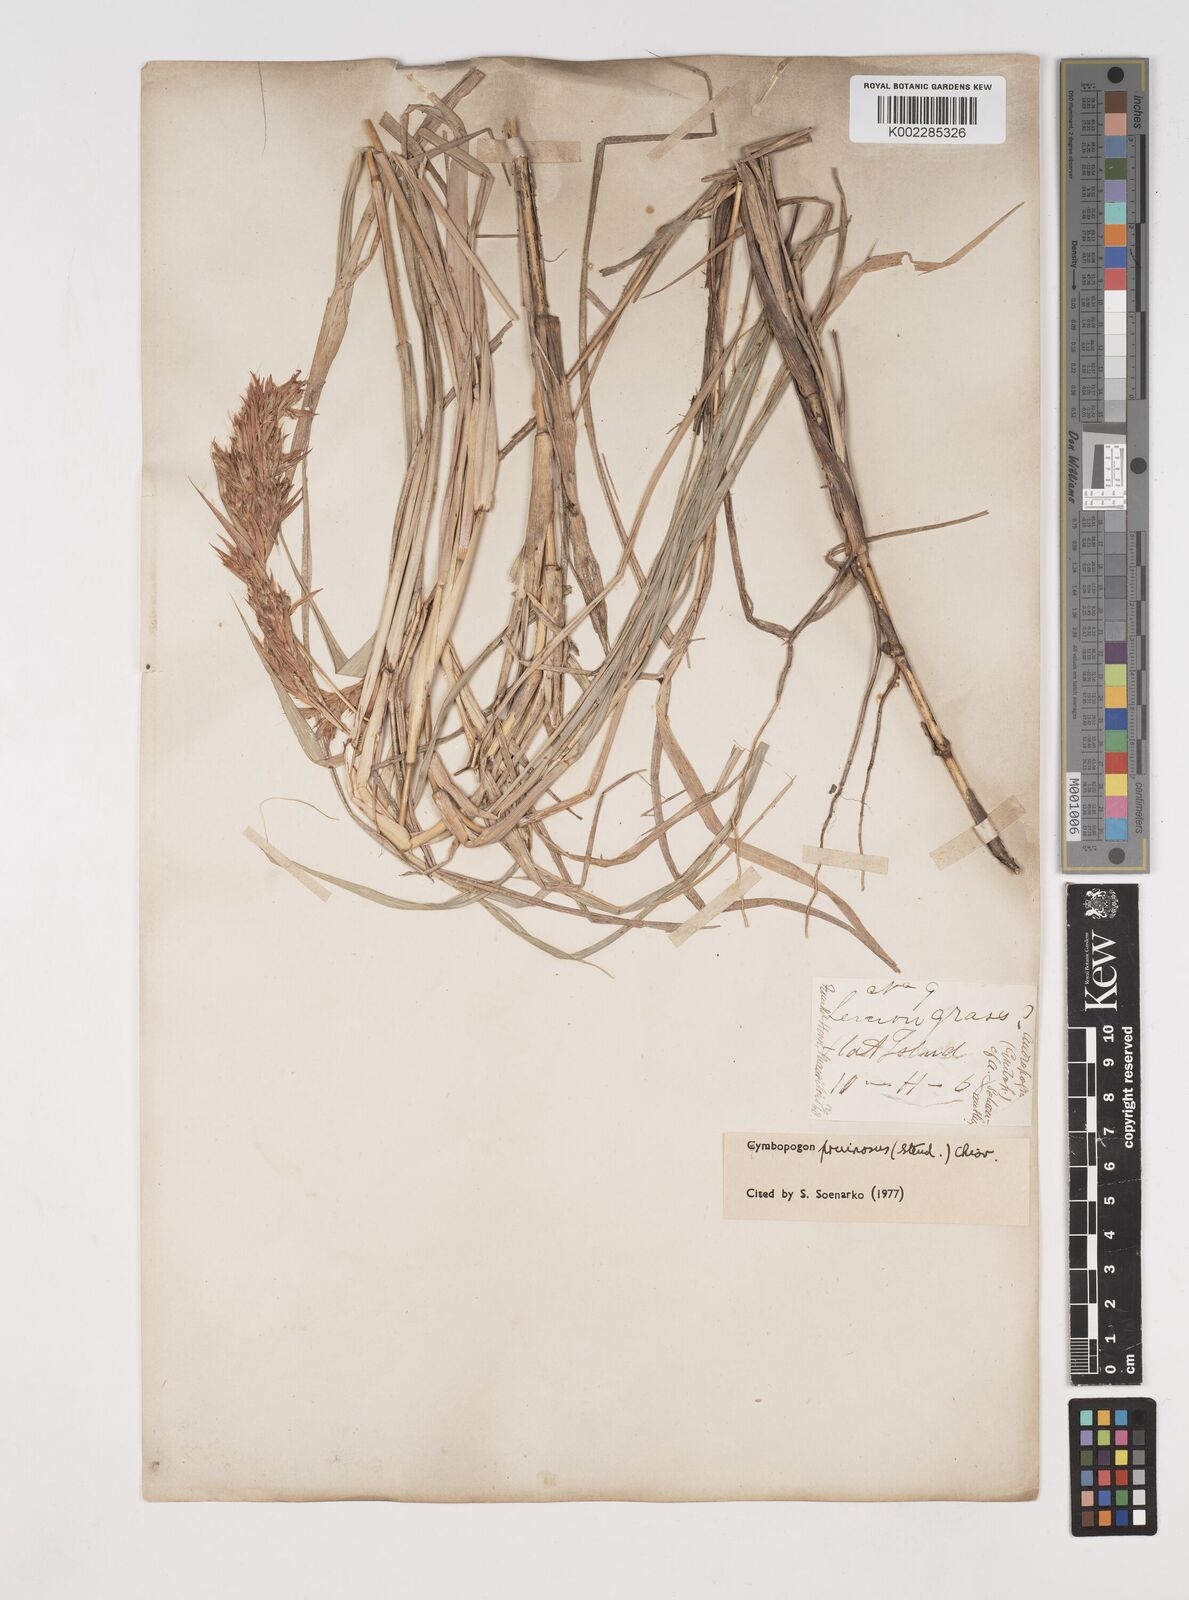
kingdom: Plantae
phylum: Tracheophyta
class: Liliopsida
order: Poales
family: Poaceae
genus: Cymbopogon
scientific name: Cymbopogon pruinosus
